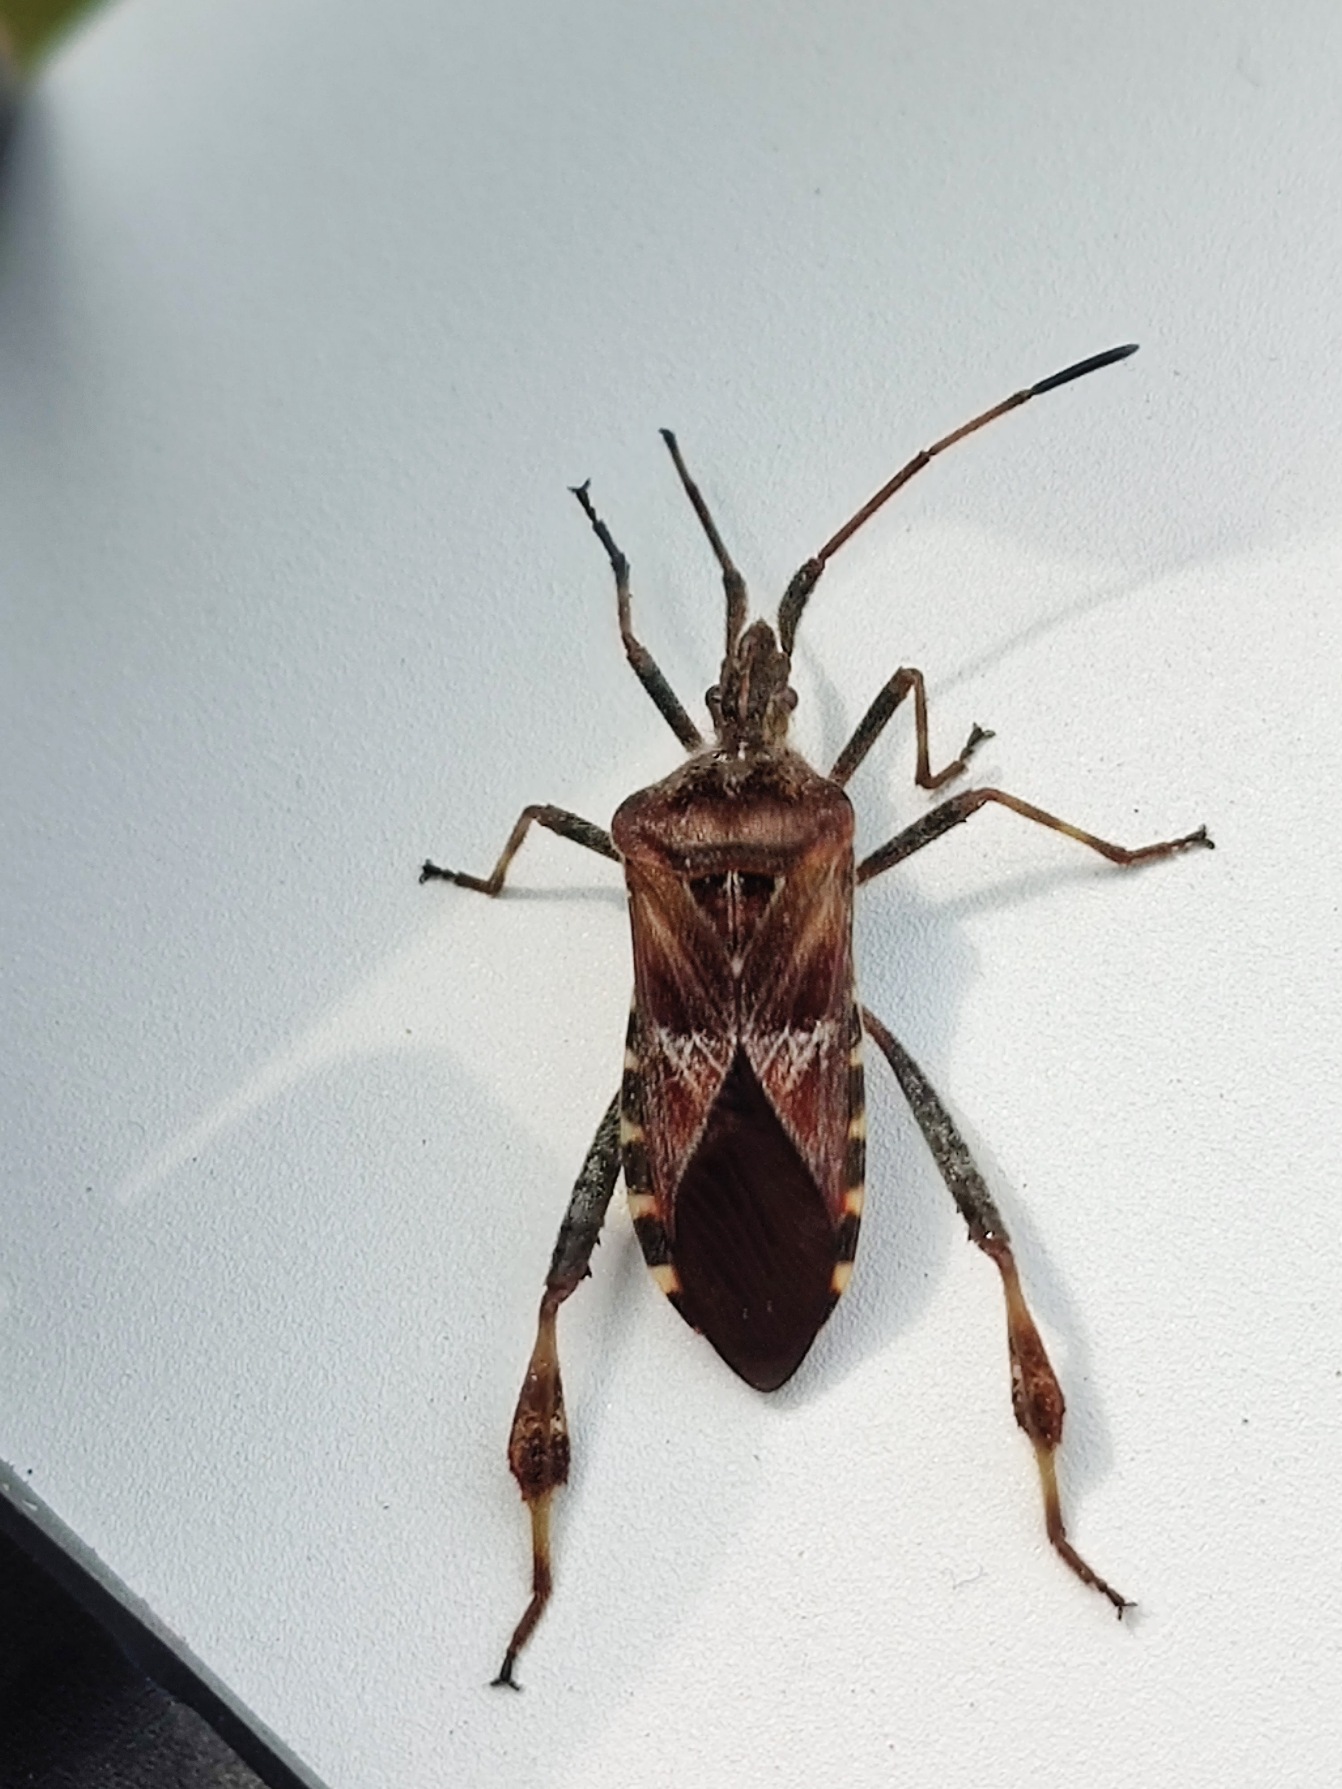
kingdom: Animalia
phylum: Arthropoda
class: Insecta
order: Hemiptera
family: Coreidae
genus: Leptoglossus
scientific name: Leptoglossus occidentalis
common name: Amerikansk fyrretæge
